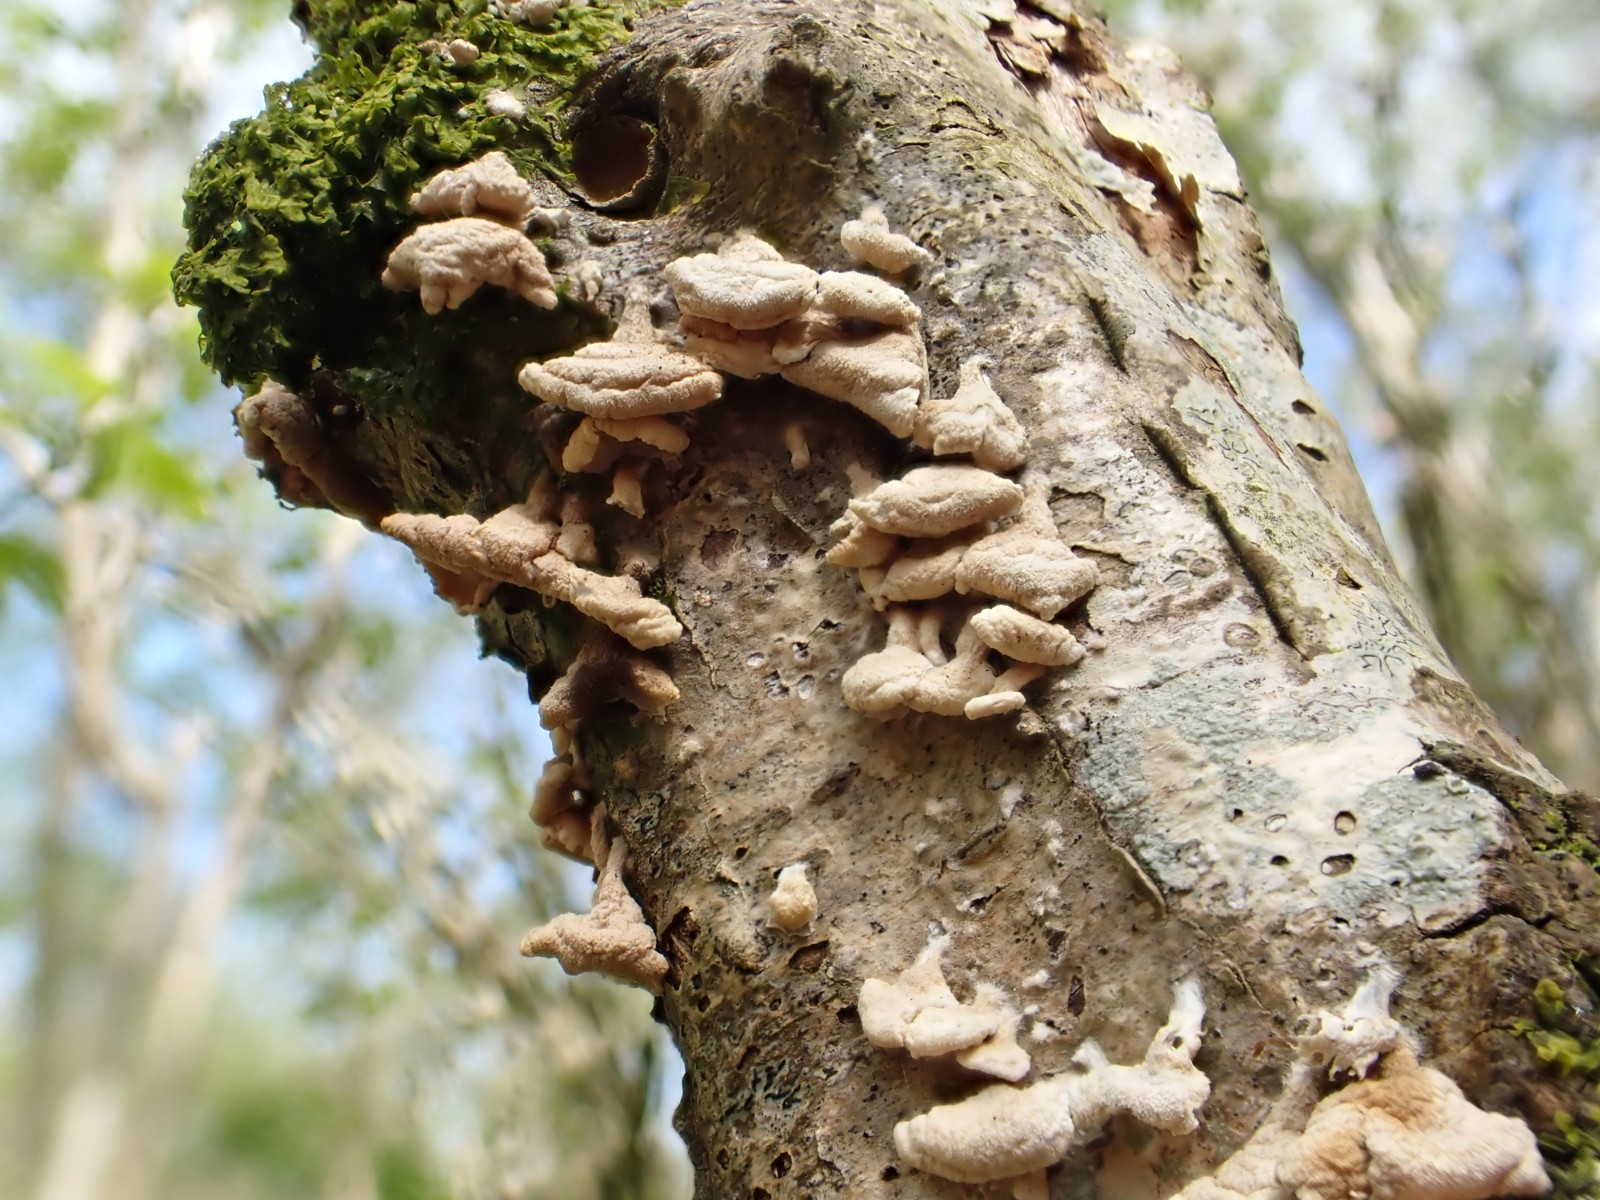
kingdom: Fungi
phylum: Basidiomycota
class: Agaricomycetes
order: Amylocorticiales
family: Amylocorticiaceae
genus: Plicaturopsis
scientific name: Plicaturopsis crispa
